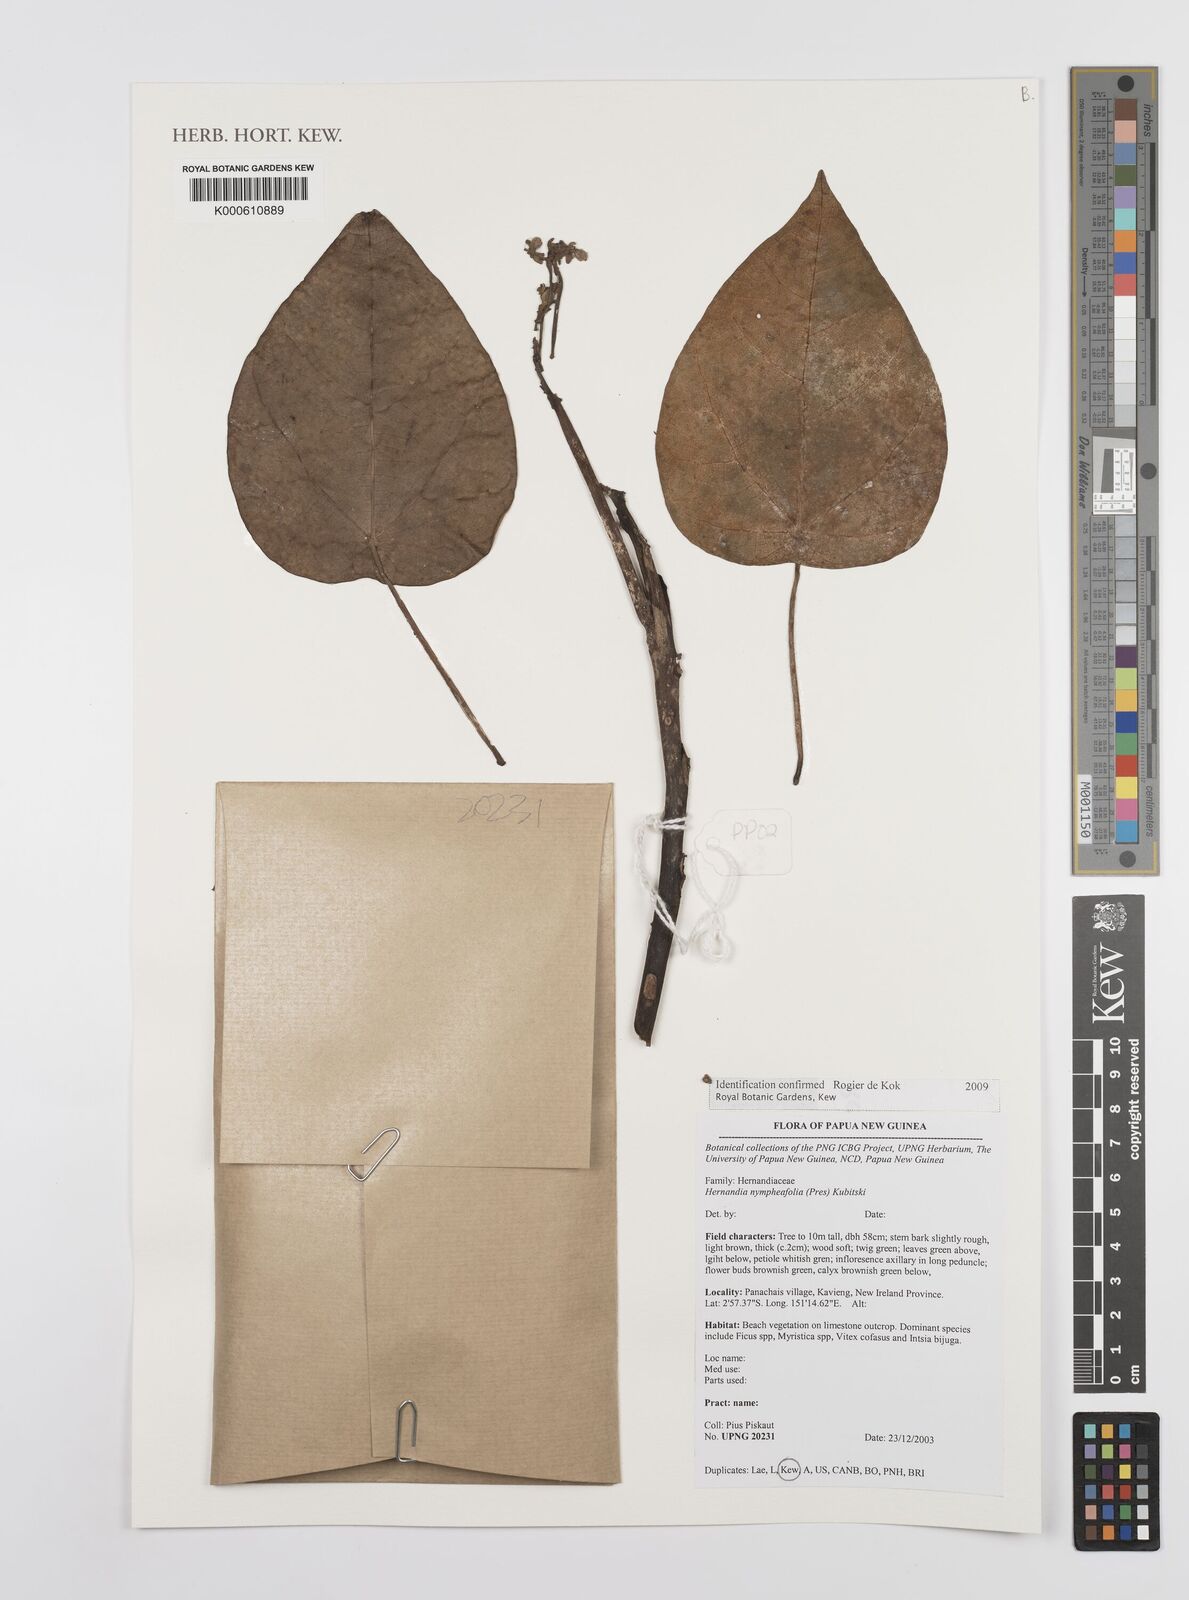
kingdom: Plantae
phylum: Tracheophyta
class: Magnoliopsida
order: Laurales
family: Hernandiaceae
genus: Hernandia
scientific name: Hernandia nymphaeifolia
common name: Sea hearse
